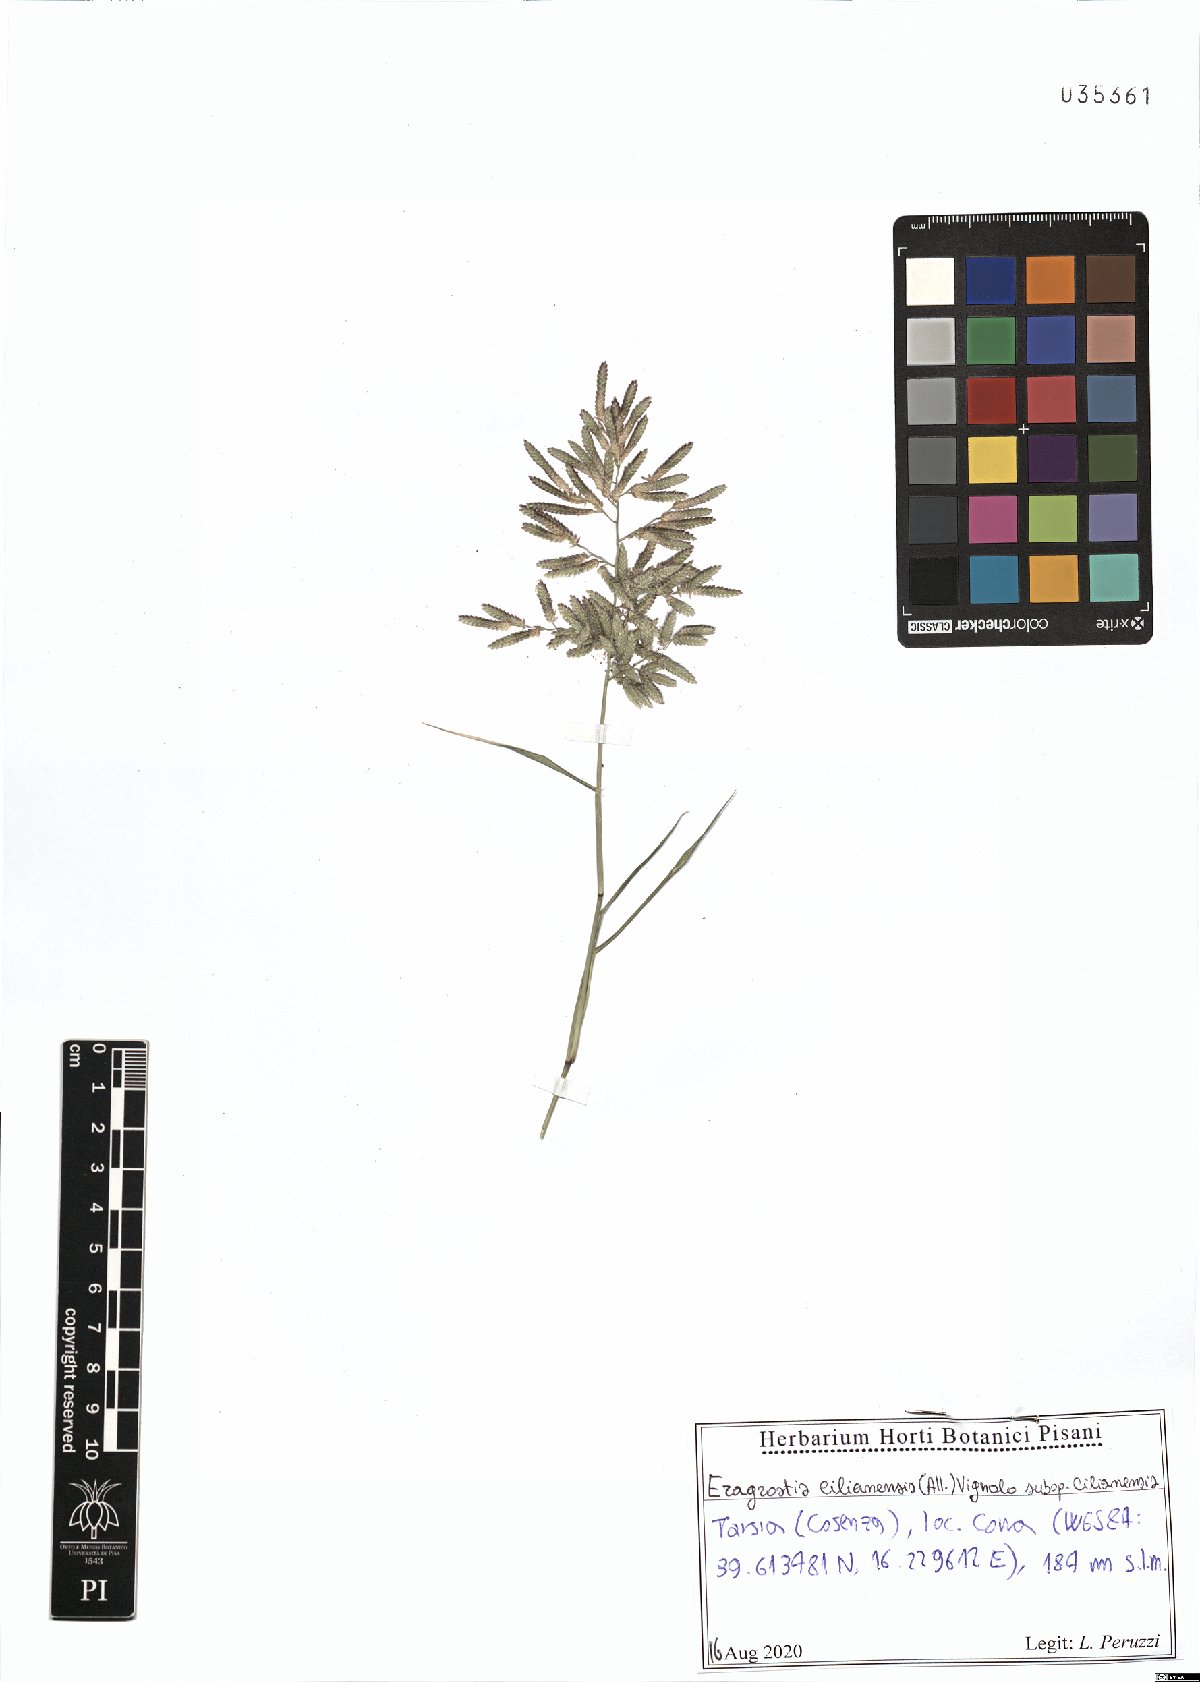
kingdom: Plantae
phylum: Tracheophyta
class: Liliopsida
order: Poales
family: Poaceae
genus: Eragrostis
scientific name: Eragrostis cilianensis
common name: Stinkgrass
